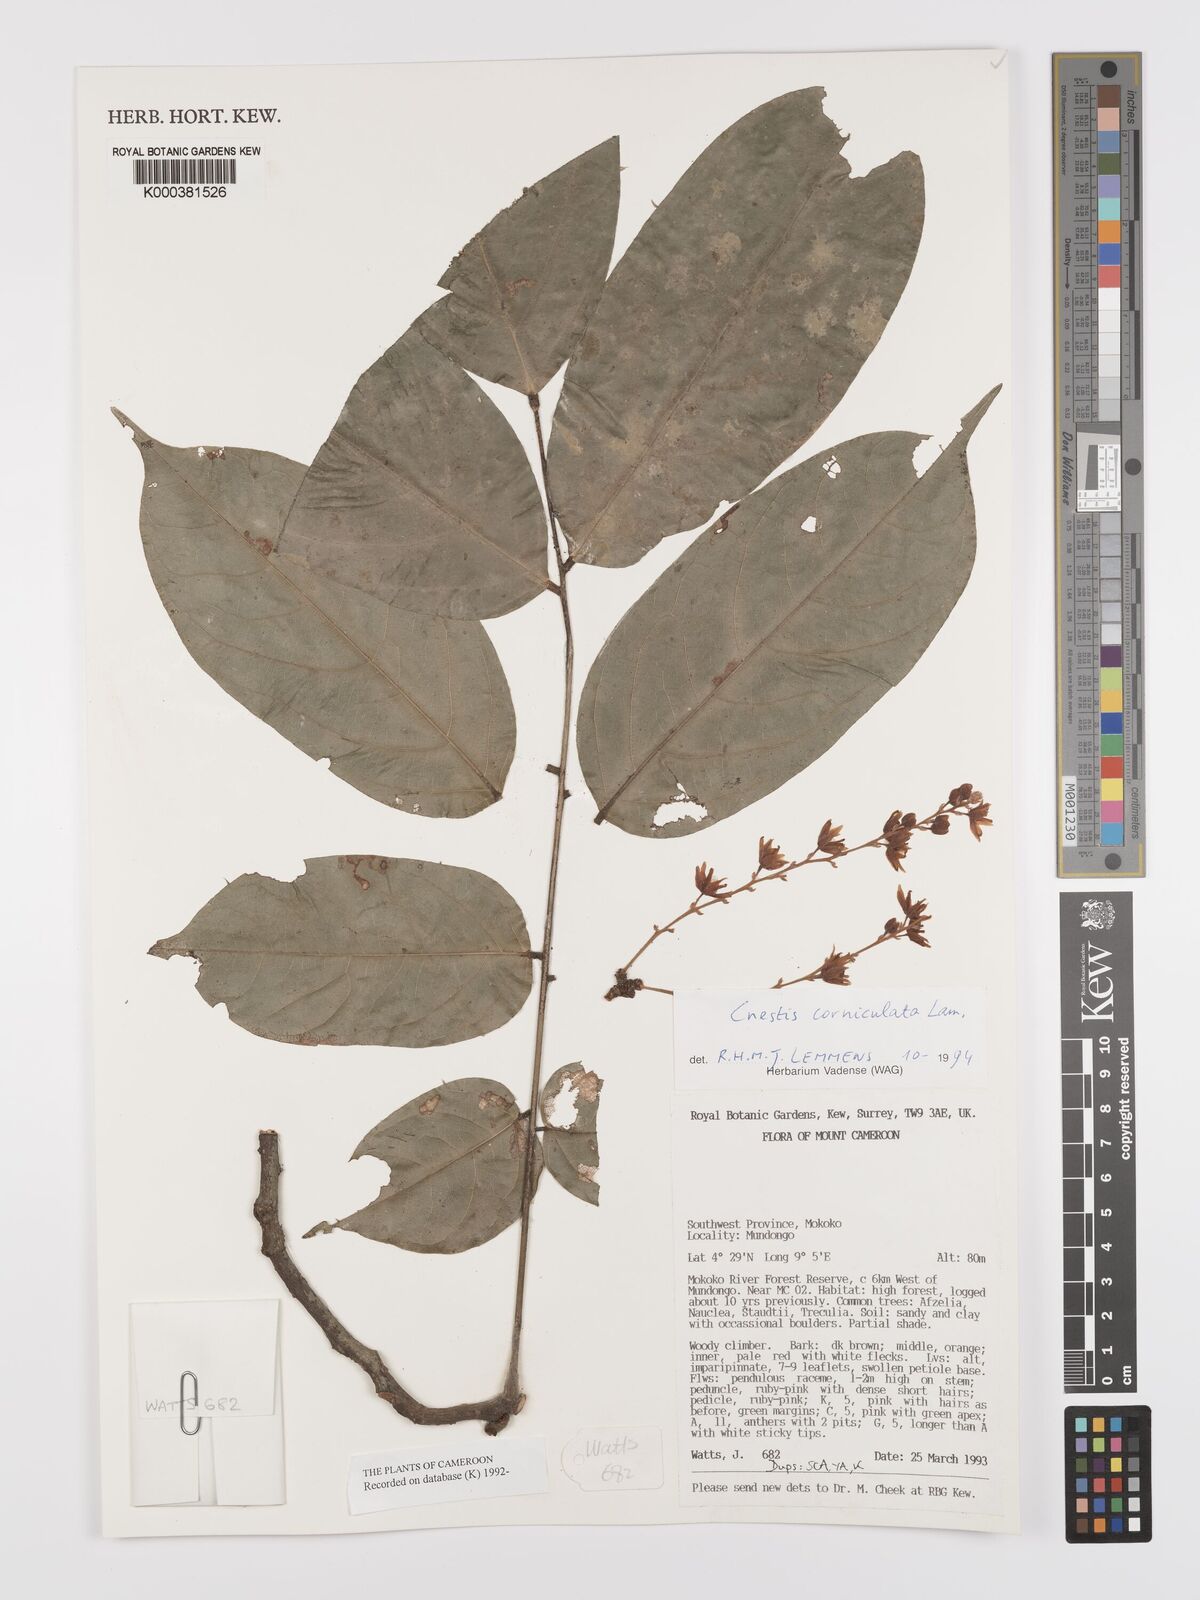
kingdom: Plantae
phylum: Tracheophyta
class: Magnoliopsida
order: Oxalidales
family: Connaraceae
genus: Cnestis
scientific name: Cnestis corniculata
